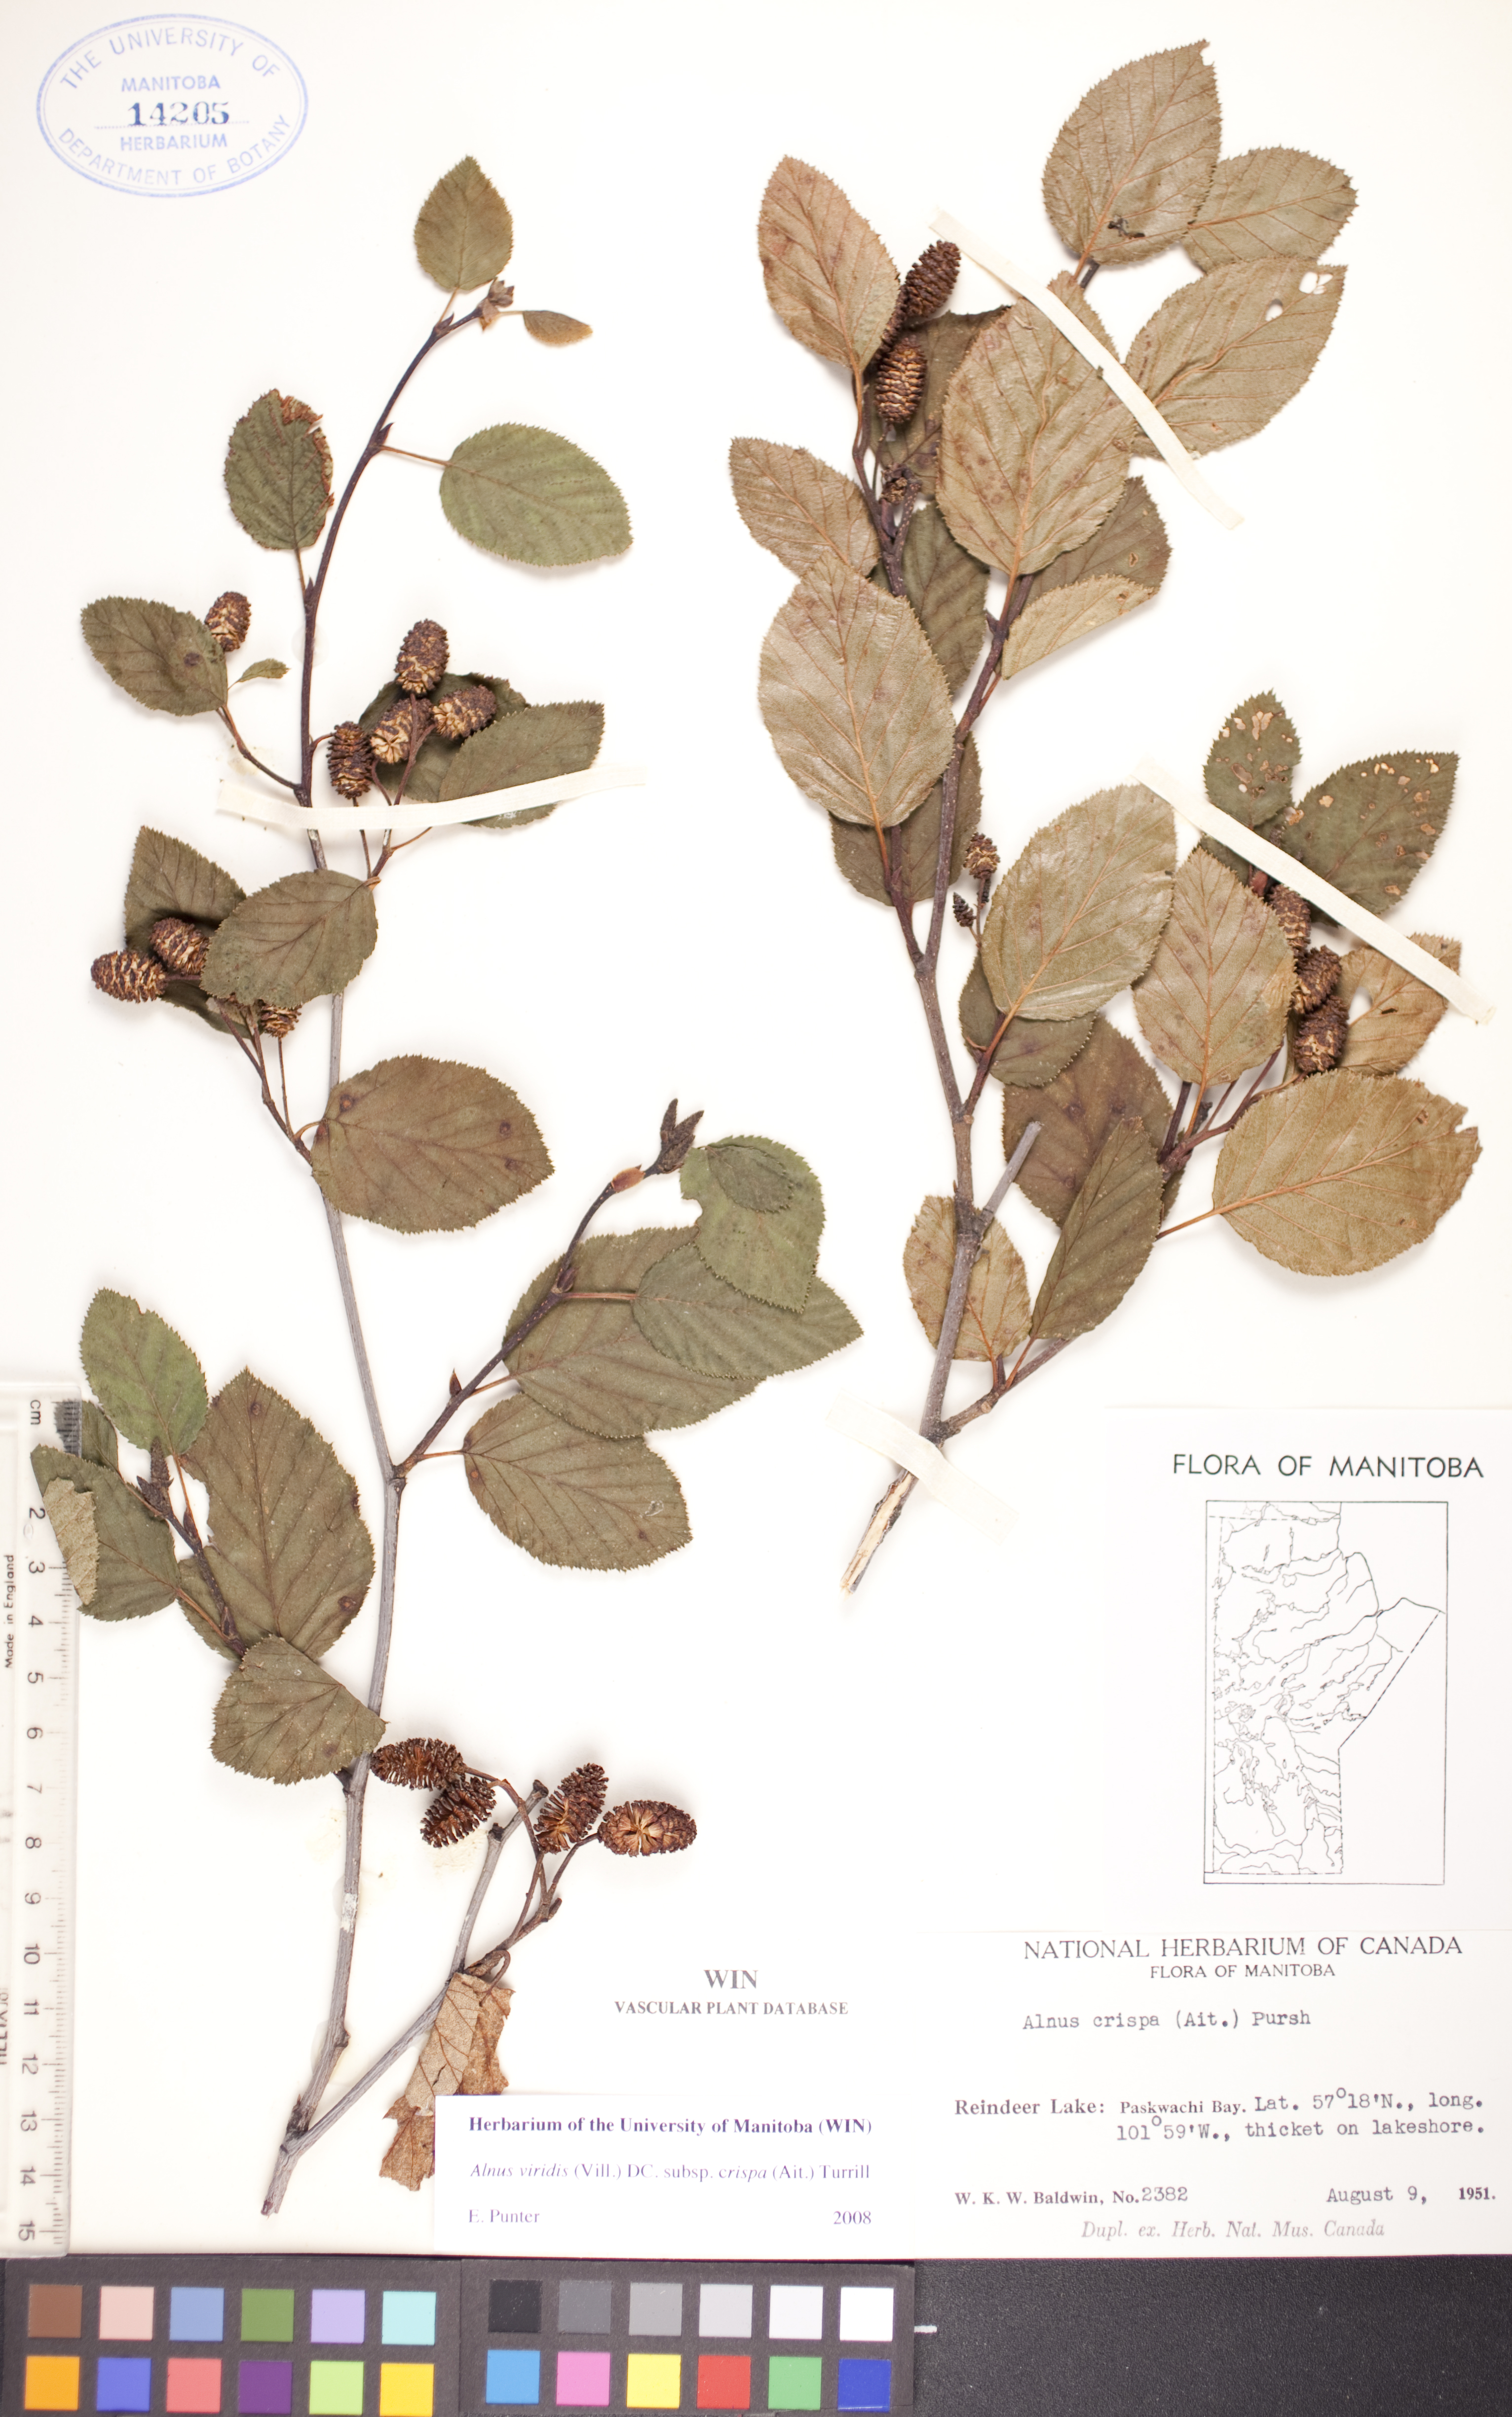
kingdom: Plantae
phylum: Tracheophyta
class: Magnoliopsida
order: Fagales
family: Betulaceae
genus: Alnus
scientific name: Alnus alnobetula
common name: Green alder
